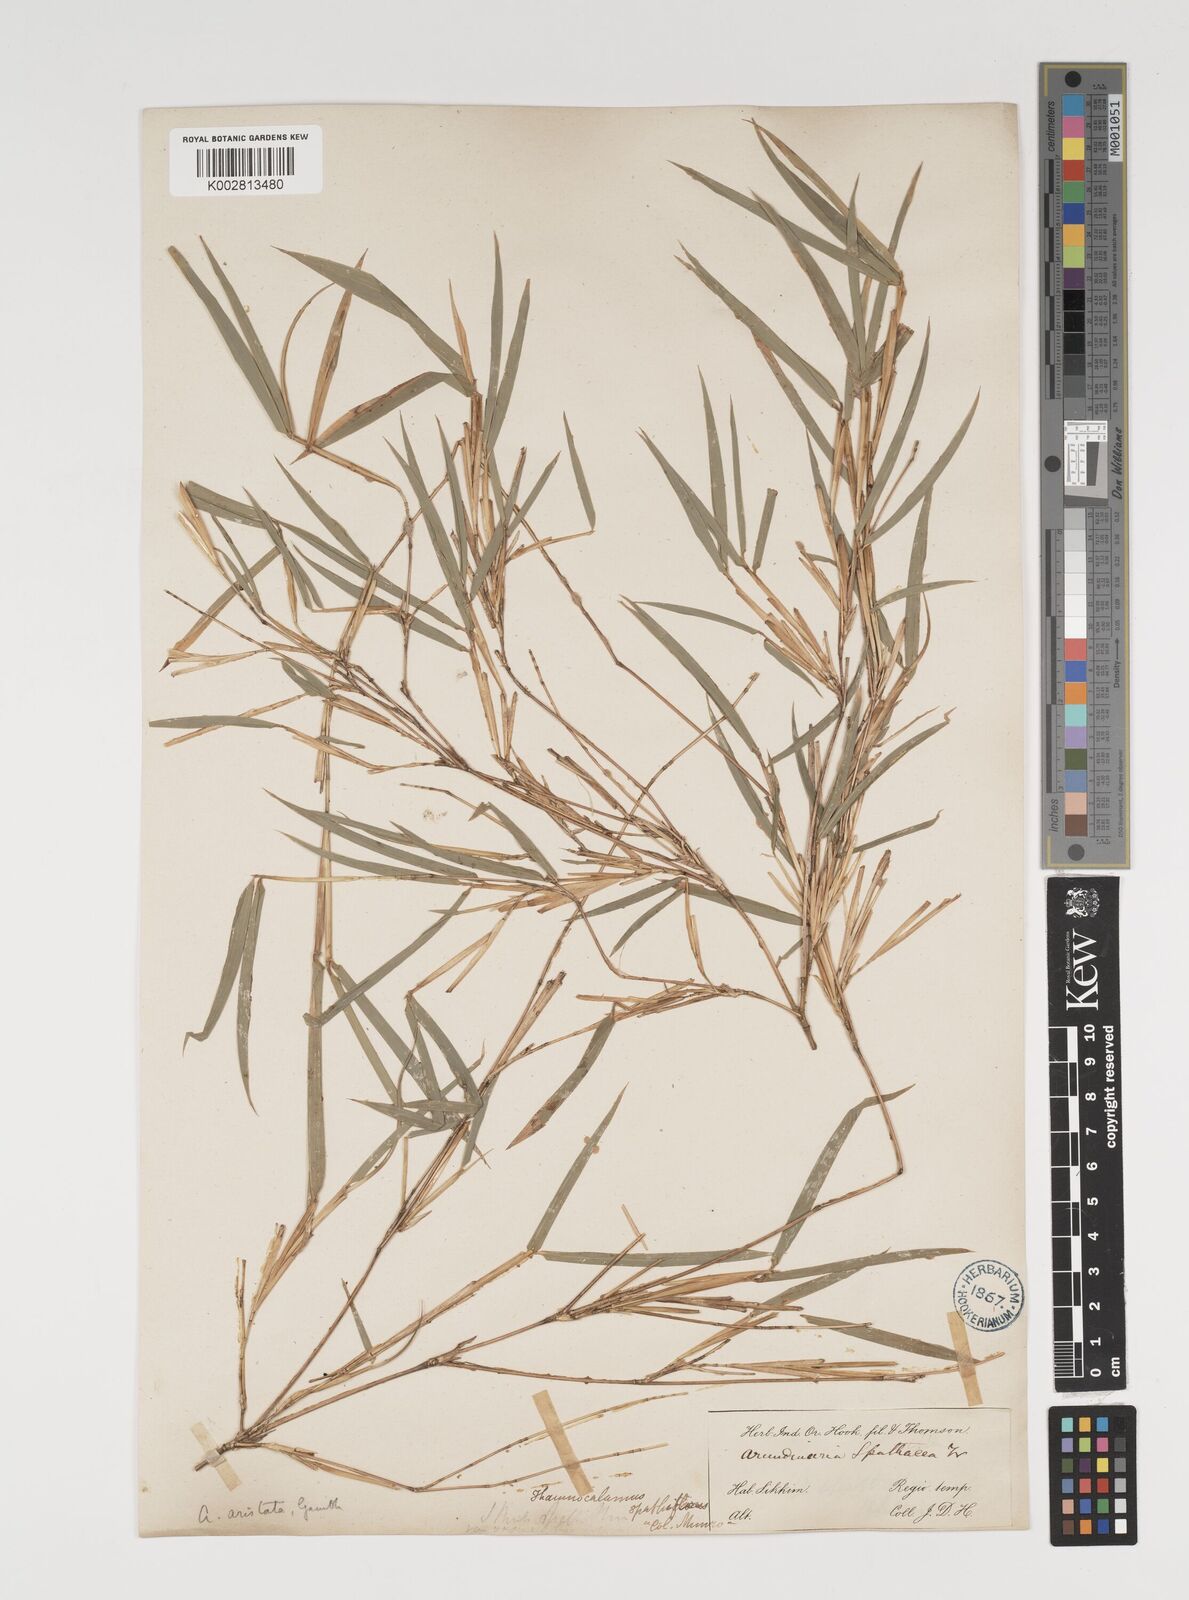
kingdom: Plantae
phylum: Tracheophyta
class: Liliopsida
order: Poales
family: Poaceae
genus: Thamnocalamus
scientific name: Thamnocalamus spathiflorus
